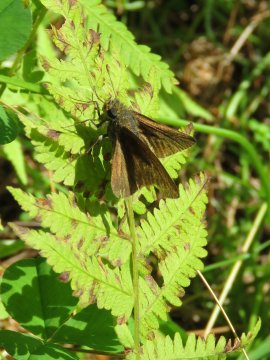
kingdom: Animalia
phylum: Arthropoda
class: Insecta
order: Lepidoptera
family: Hesperiidae
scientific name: Hesperiidae
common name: Skippers
